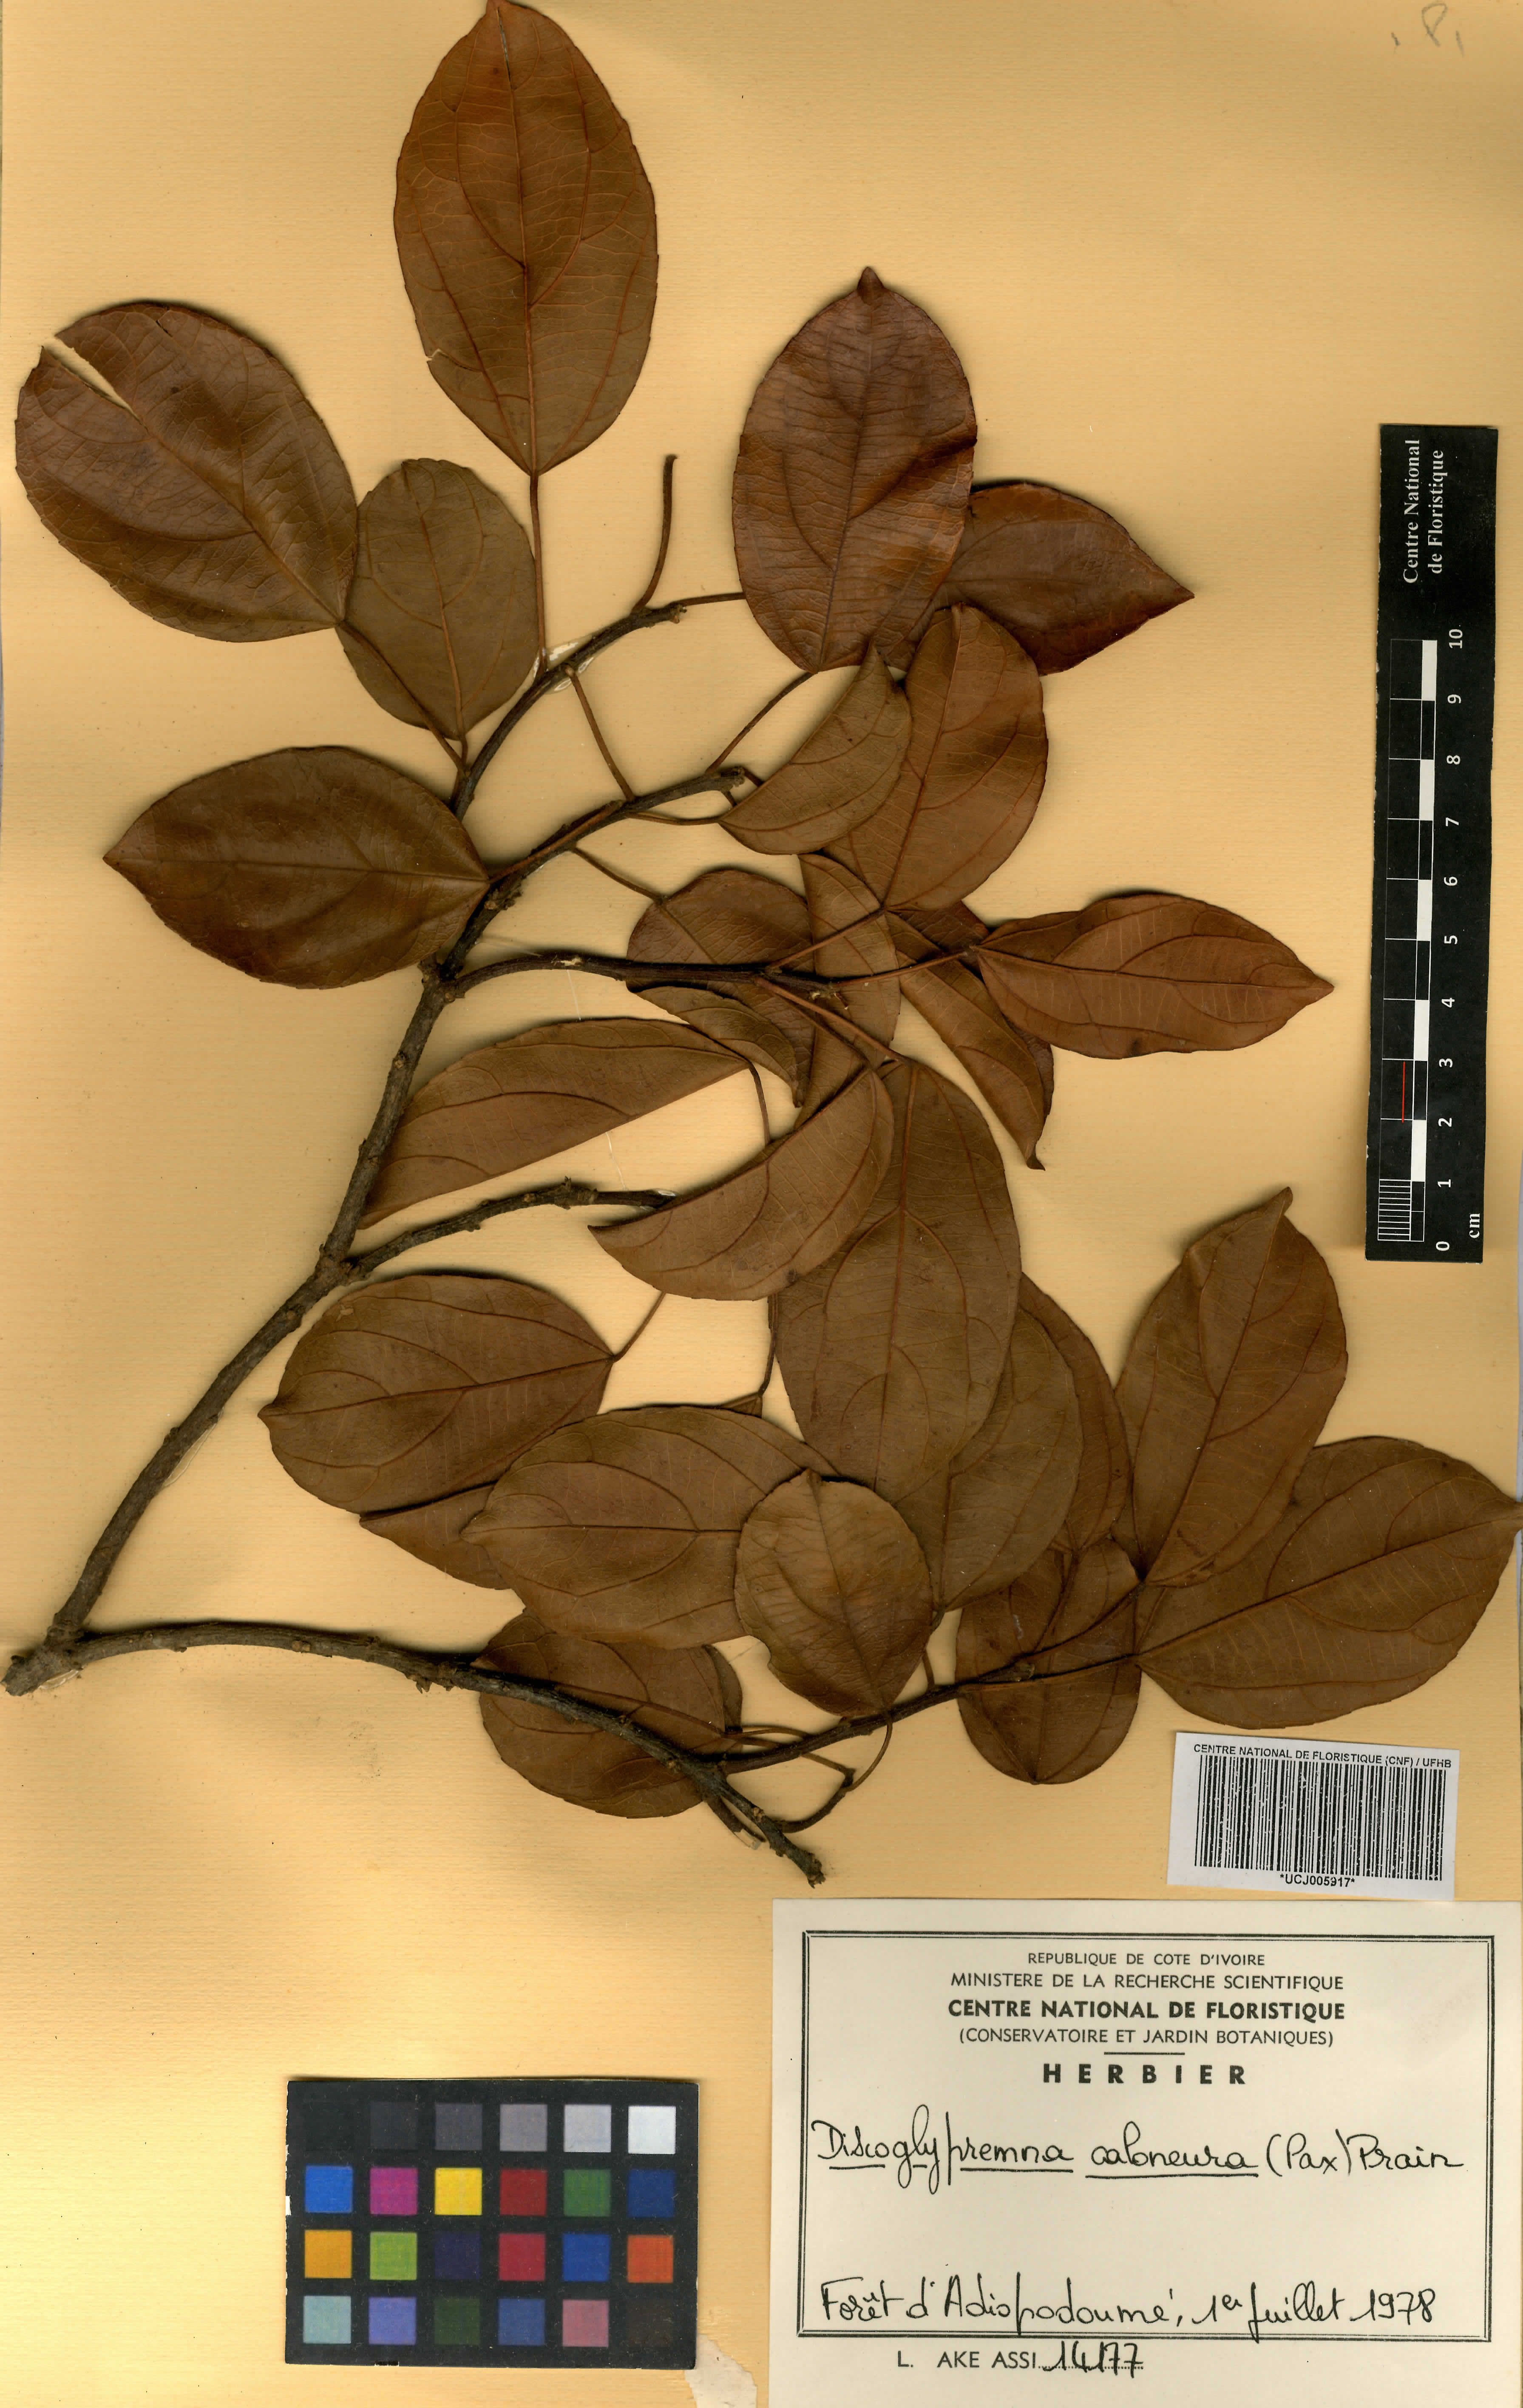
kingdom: Plantae
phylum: Tracheophyta
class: Magnoliopsida
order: Malpighiales
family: Euphorbiaceae
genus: Discoglypremna
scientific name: Discoglypremna caloneura
